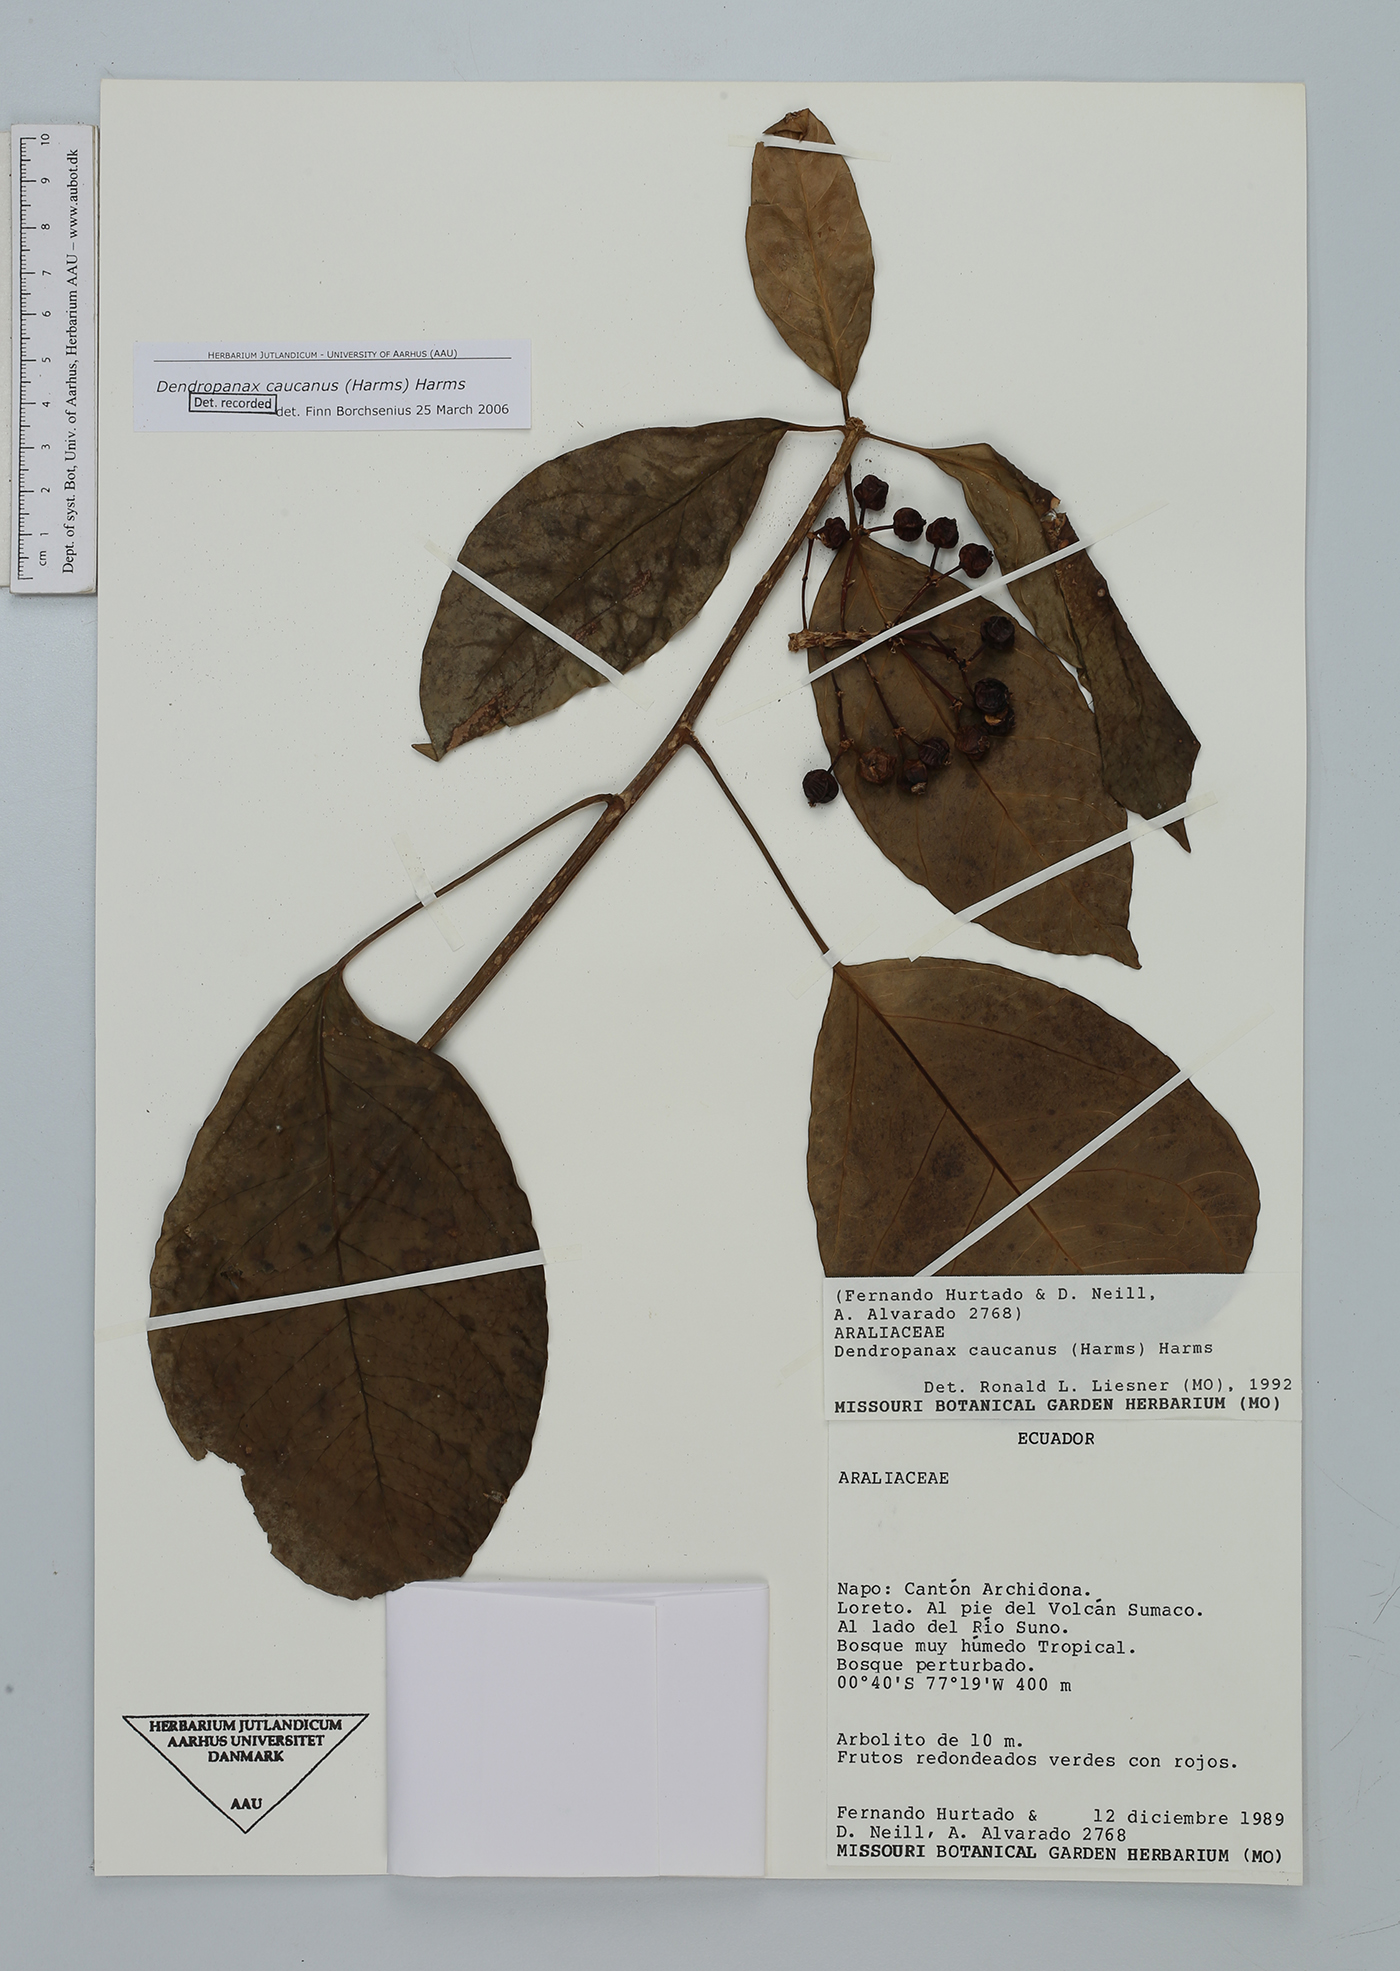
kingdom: Plantae
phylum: Tracheophyta
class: Magnoliopsida
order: Apiales
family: Araliaceae
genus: Dendropanax
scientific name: Dendropanax caucanus
